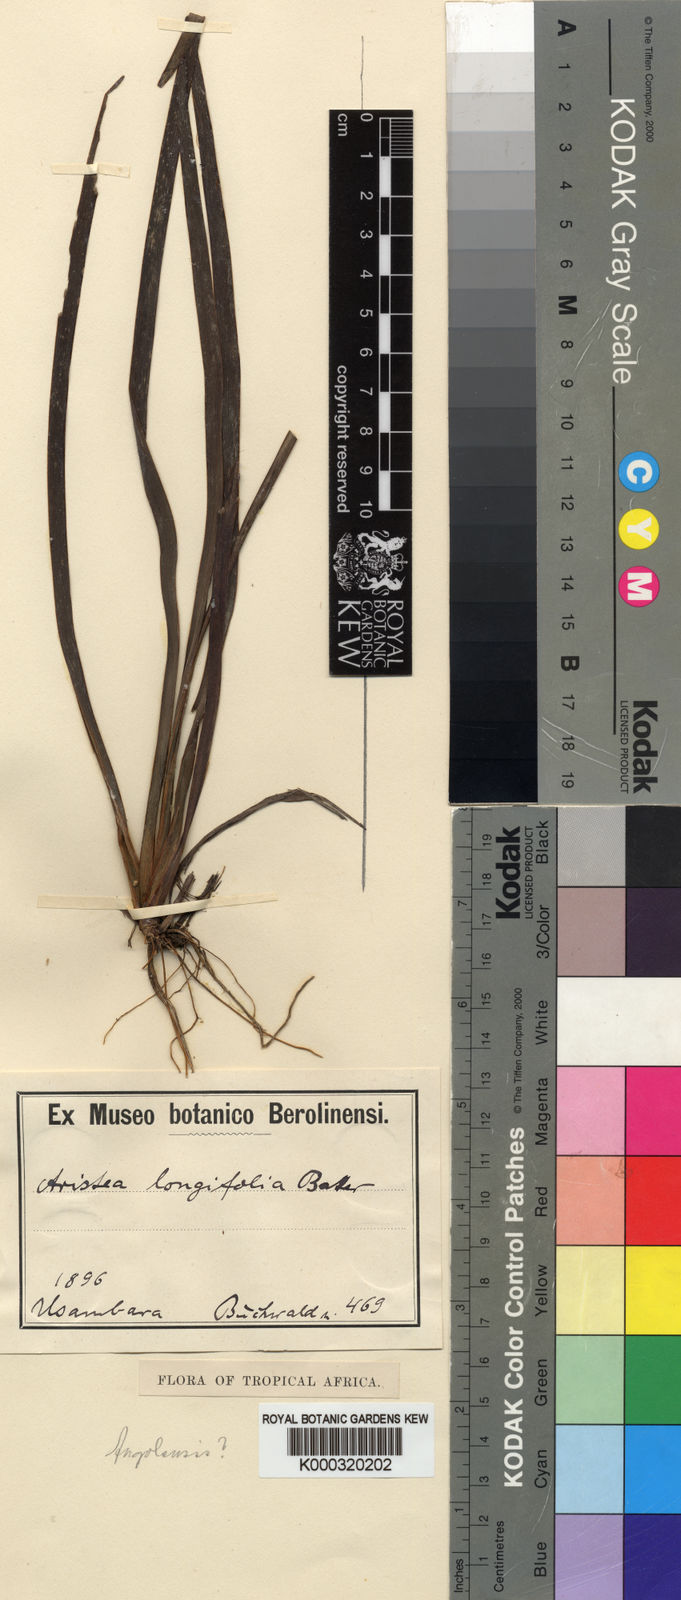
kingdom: Plantae
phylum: Tracheophyta
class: Liliopsida
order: Asparagales
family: Iridaceae
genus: Aristea
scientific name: Aristea alata
